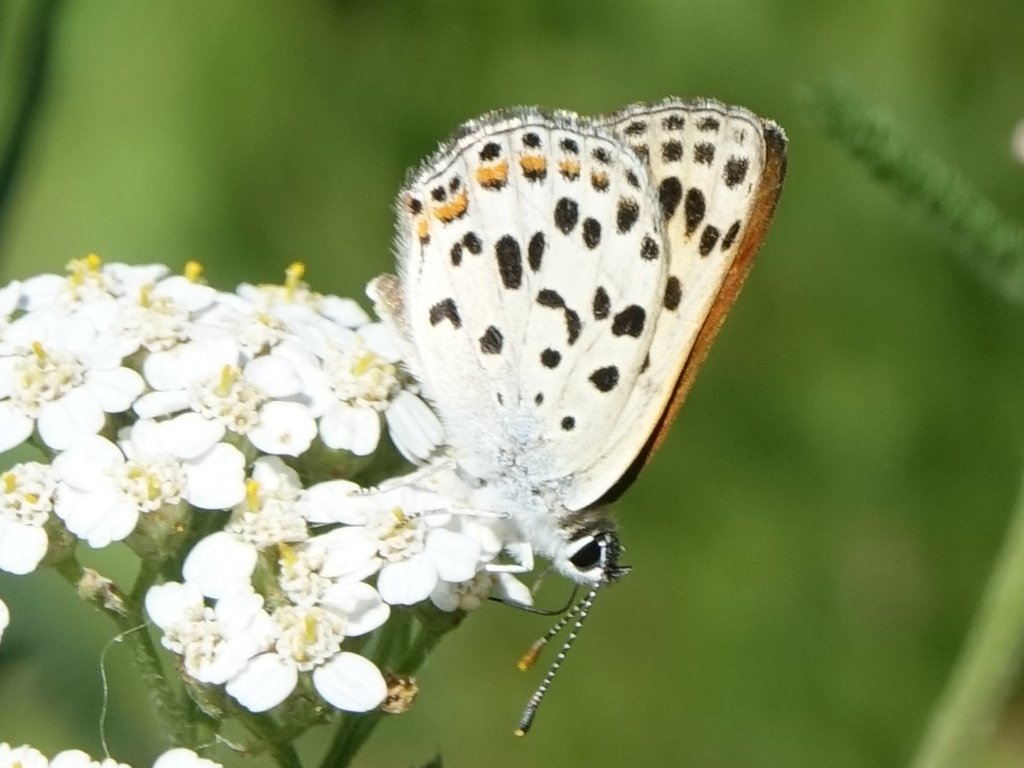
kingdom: Animalia
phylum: Arthropoda
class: Insecta
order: Lepidoptera
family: Lycaenidae
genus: Lycaena
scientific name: Lycaena gorgon
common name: Gorgon Copper
